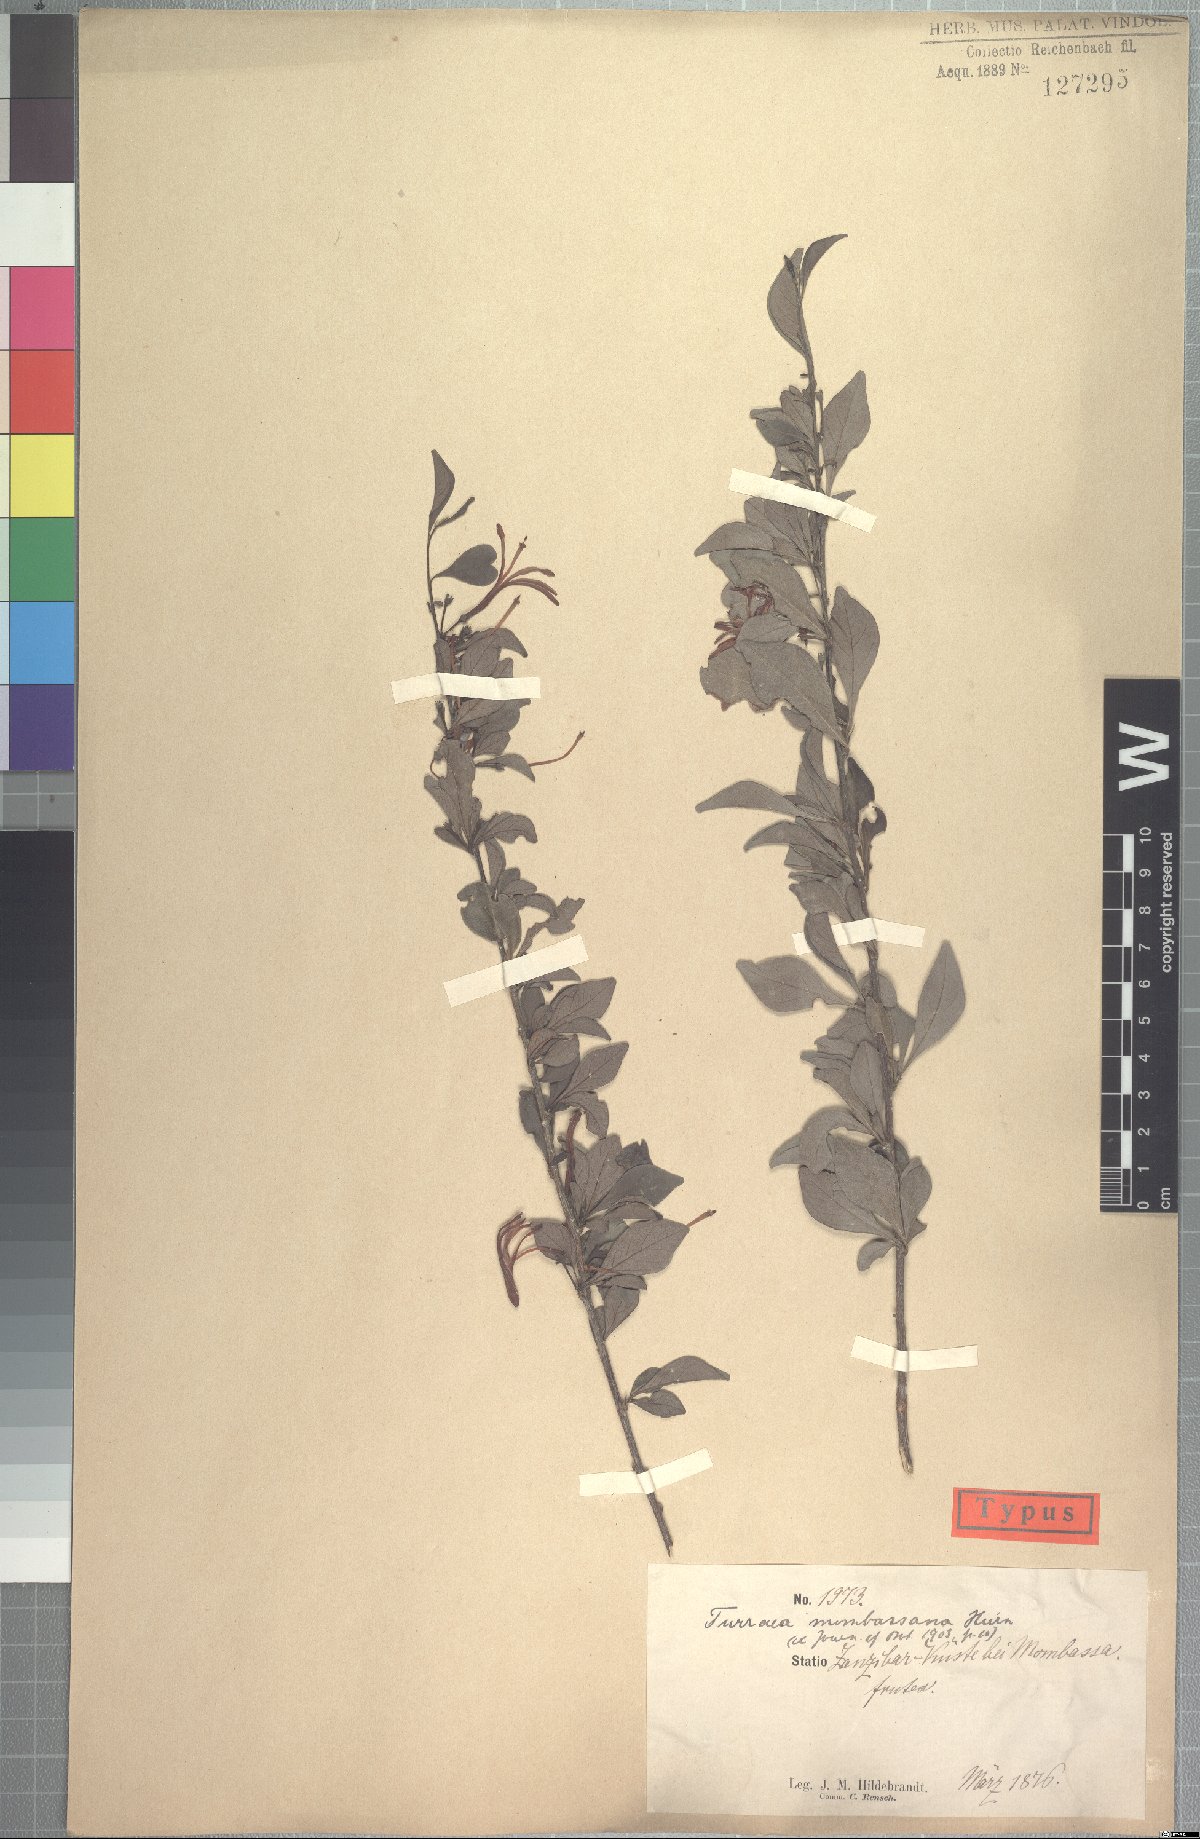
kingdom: Plantae
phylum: Tracheophyta
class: Magnoliopsida
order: Sapindales
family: Meliaceae
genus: Turraea
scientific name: Turraea mombassana
